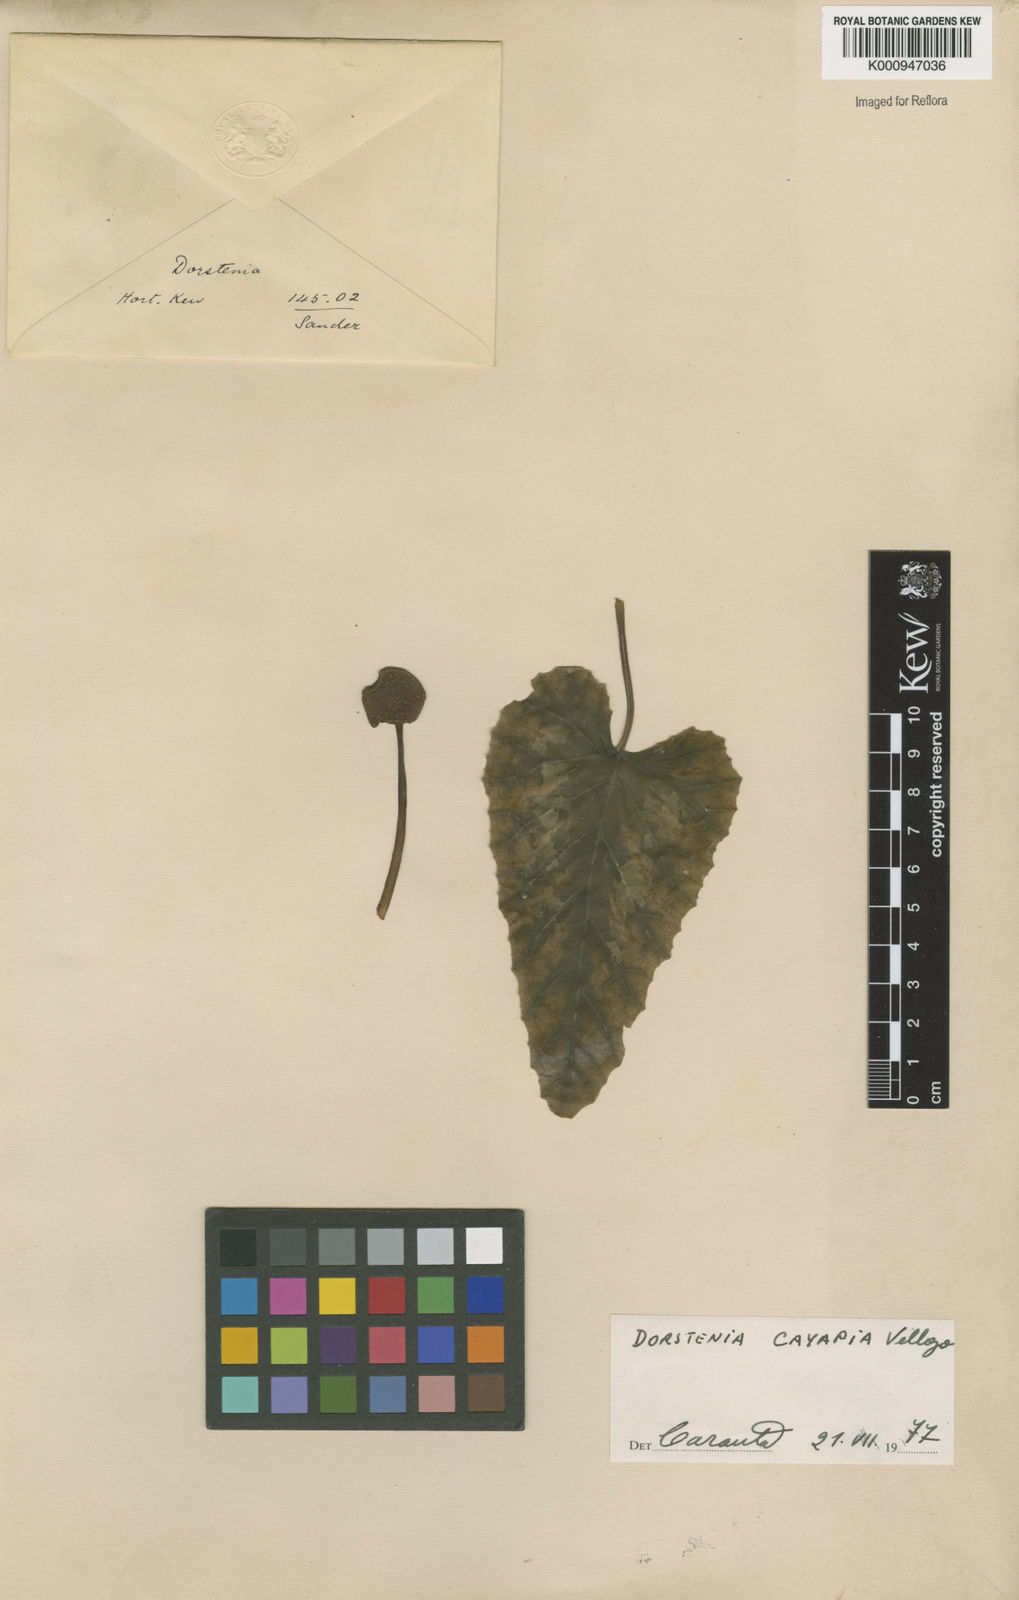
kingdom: Plantae
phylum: Tracheophyta
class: Magnoliopsida
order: Rosales
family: Moraceae
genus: Dorstenia
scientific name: Dorstenia cayapia
